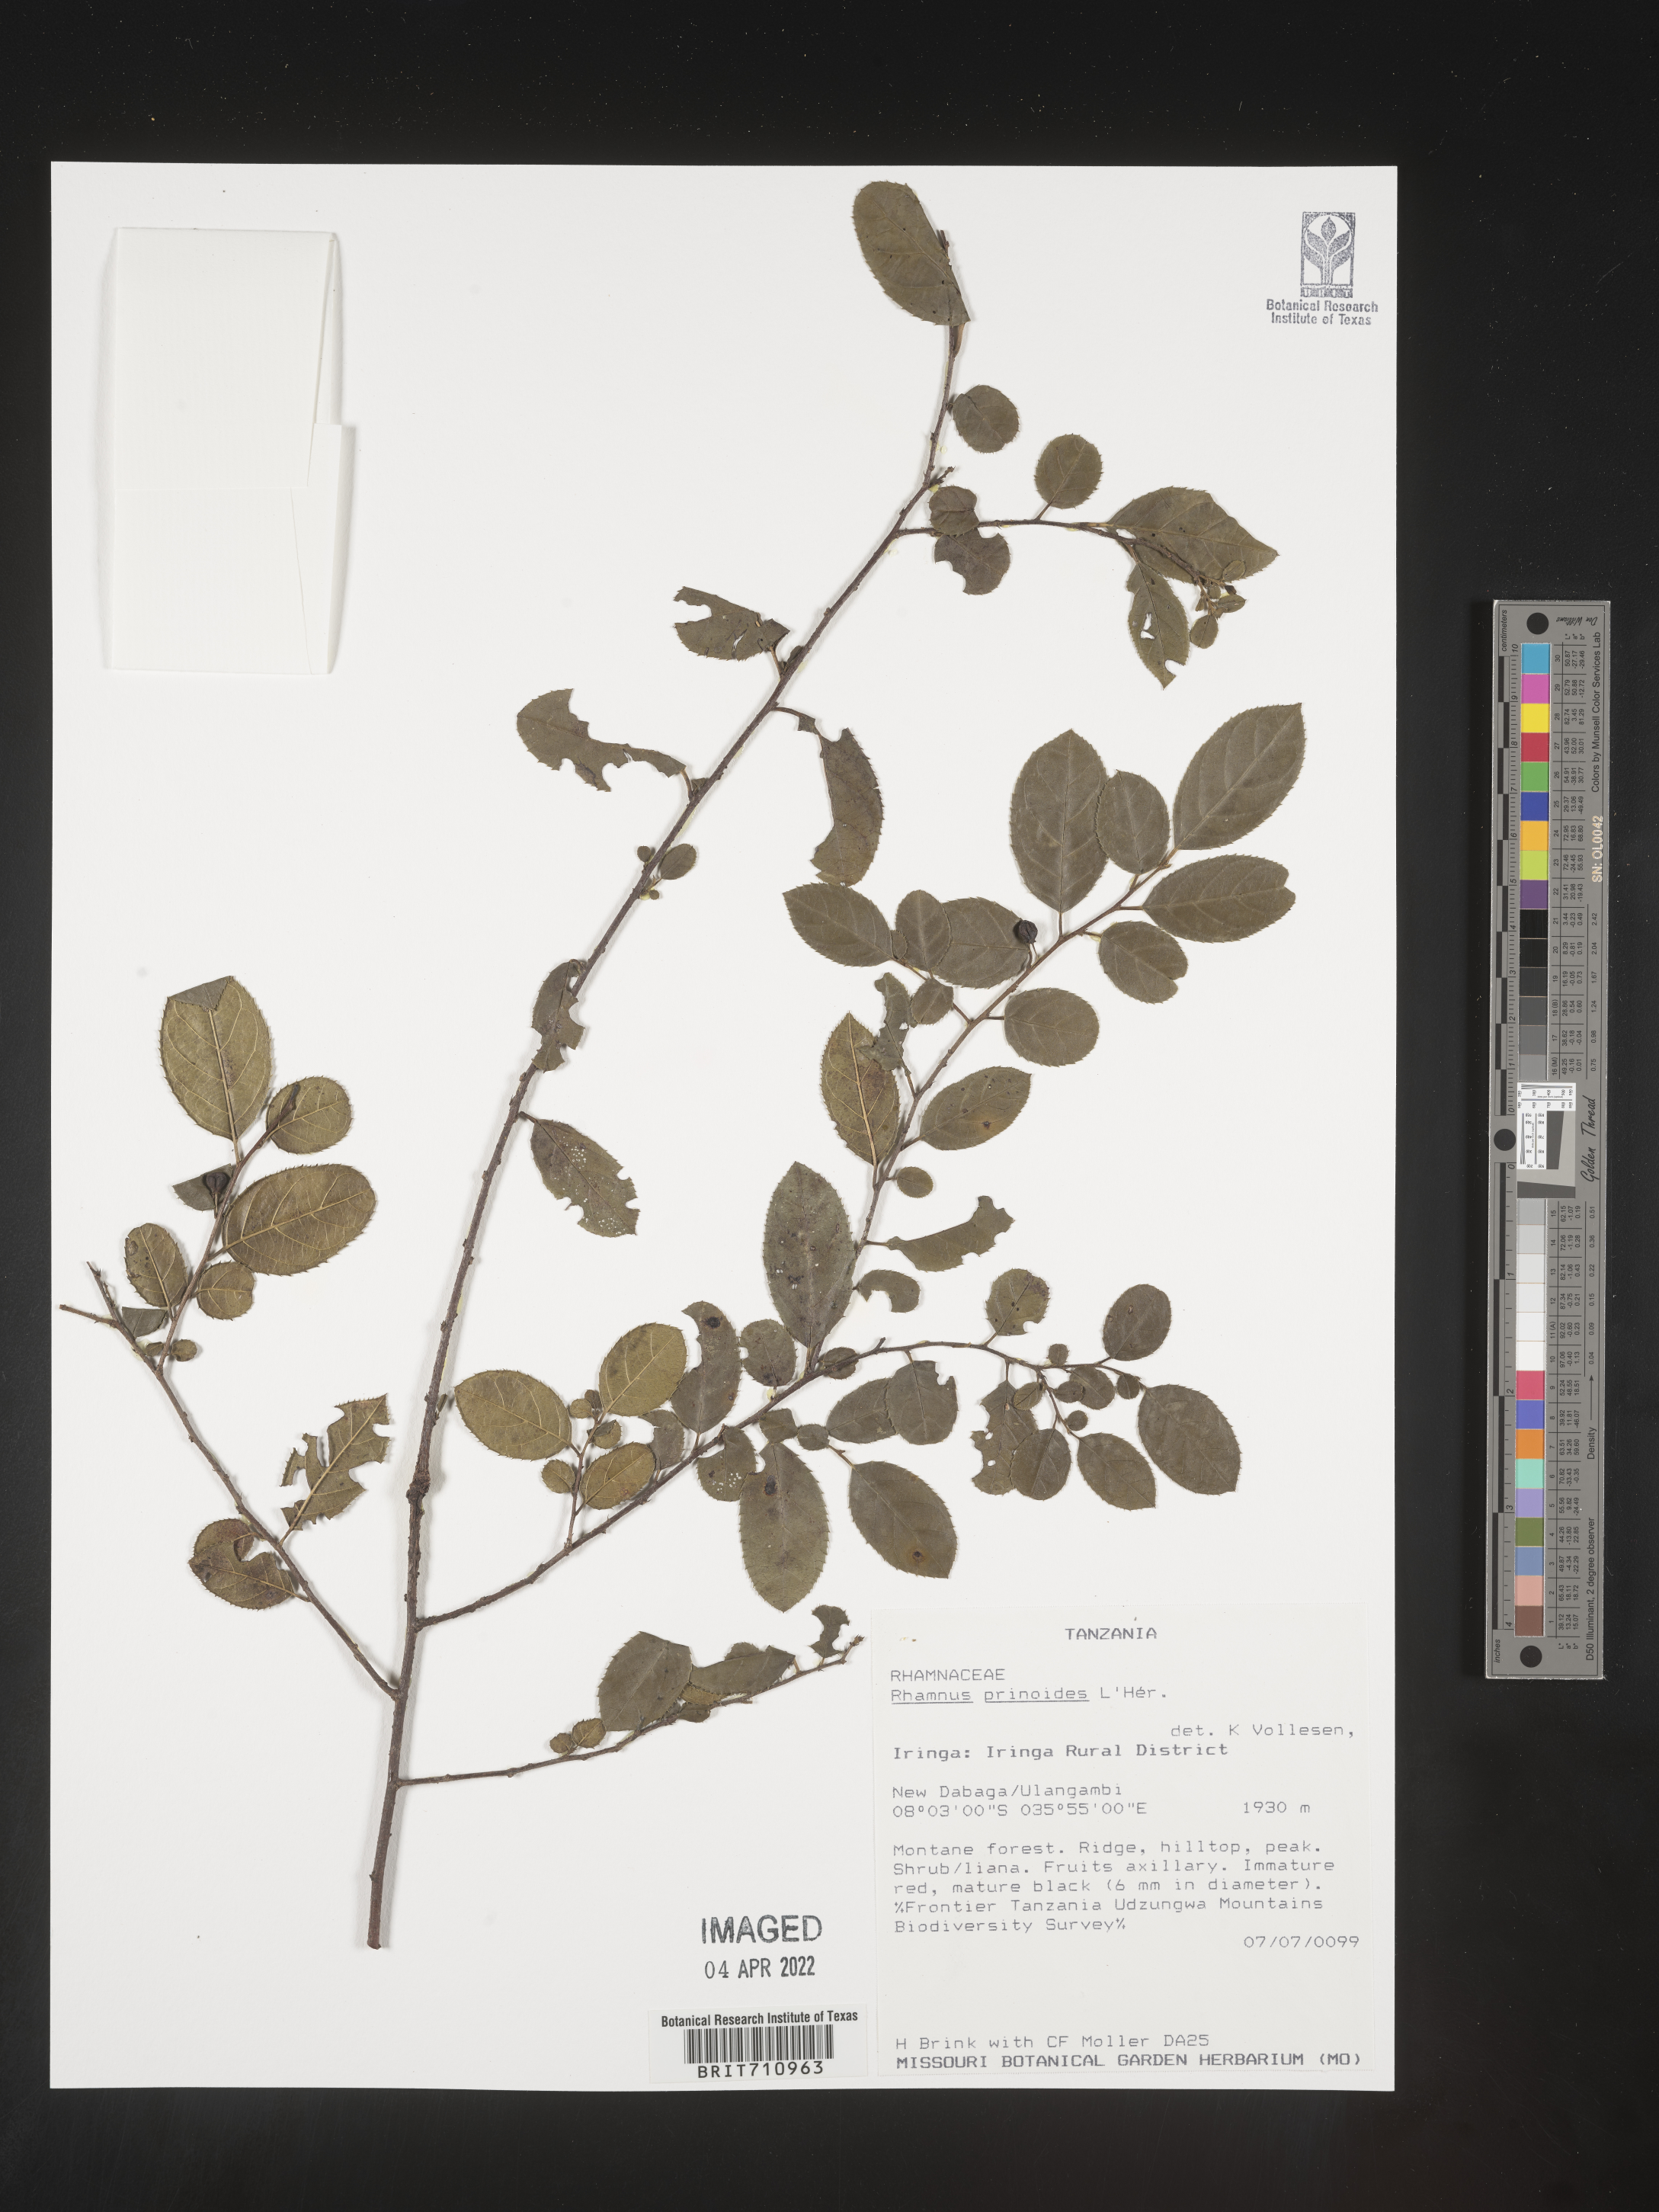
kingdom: Plantae
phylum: Tracheophyta
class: Magnoliopsida
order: Rosales
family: Rhamnaceae
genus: Rhamnus
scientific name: Rhamnus
